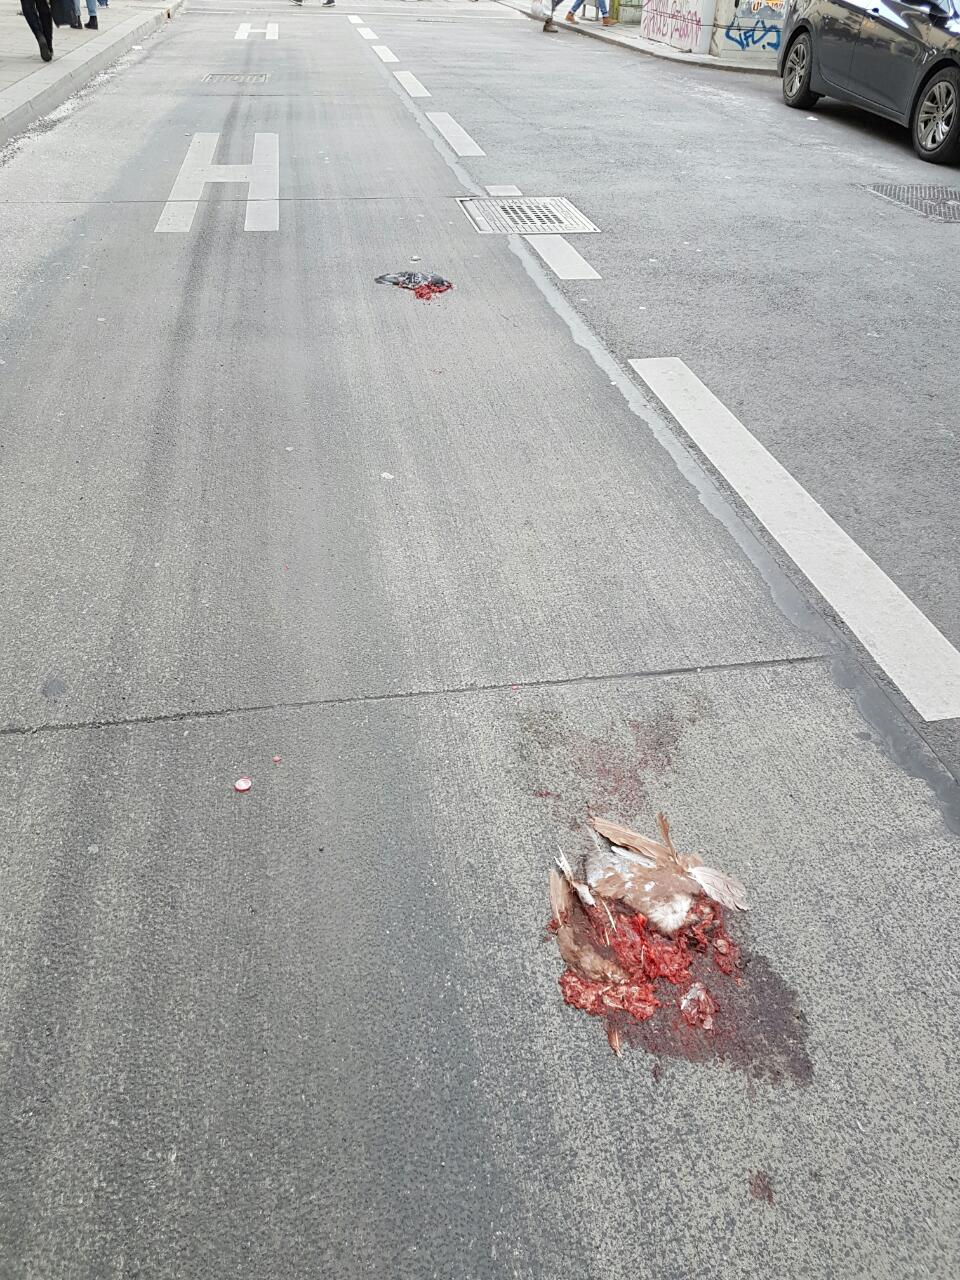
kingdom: Animalia
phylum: Chordata
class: Aves
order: Columbiformes
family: Columbidae
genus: Columba
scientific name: Columba livia
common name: Rock pigeon
